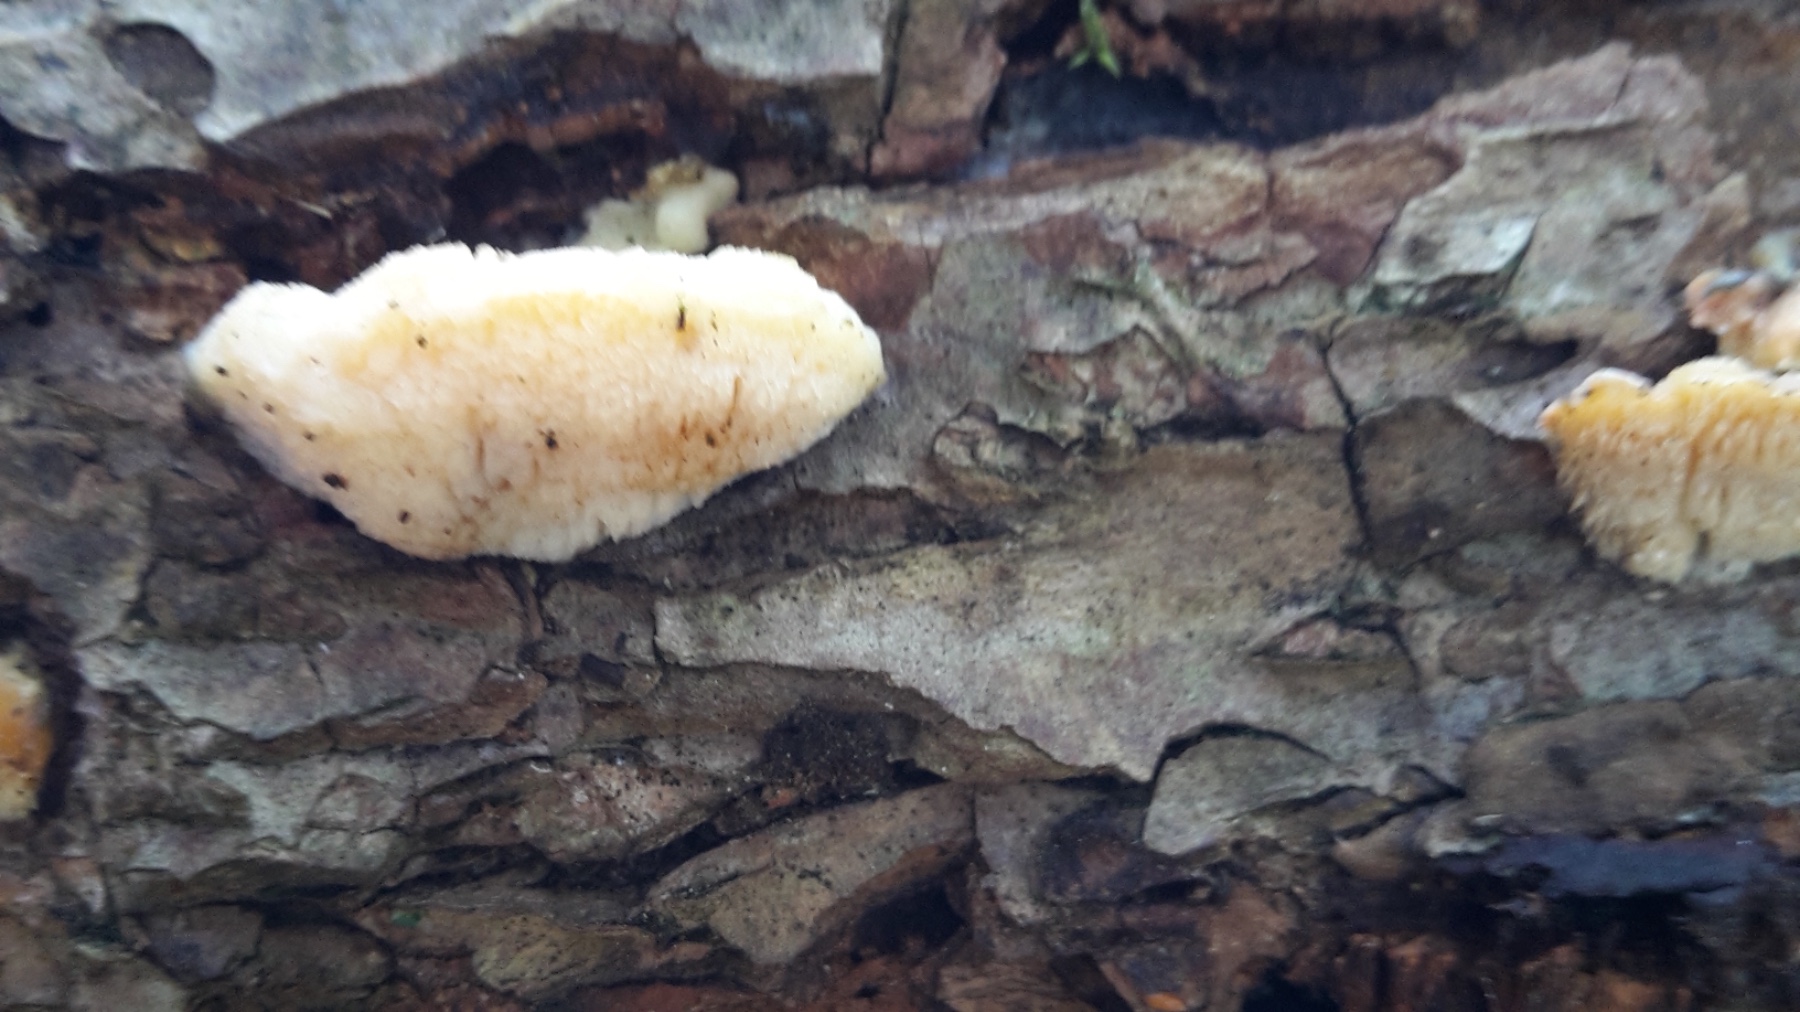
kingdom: Fungi
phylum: Basidiomycota
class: Agaricomycetes
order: Polyporales
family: Steccherinaceae
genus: Antrodiella
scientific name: Antrodiella serpula
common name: gulrandet elastikporesvamp
